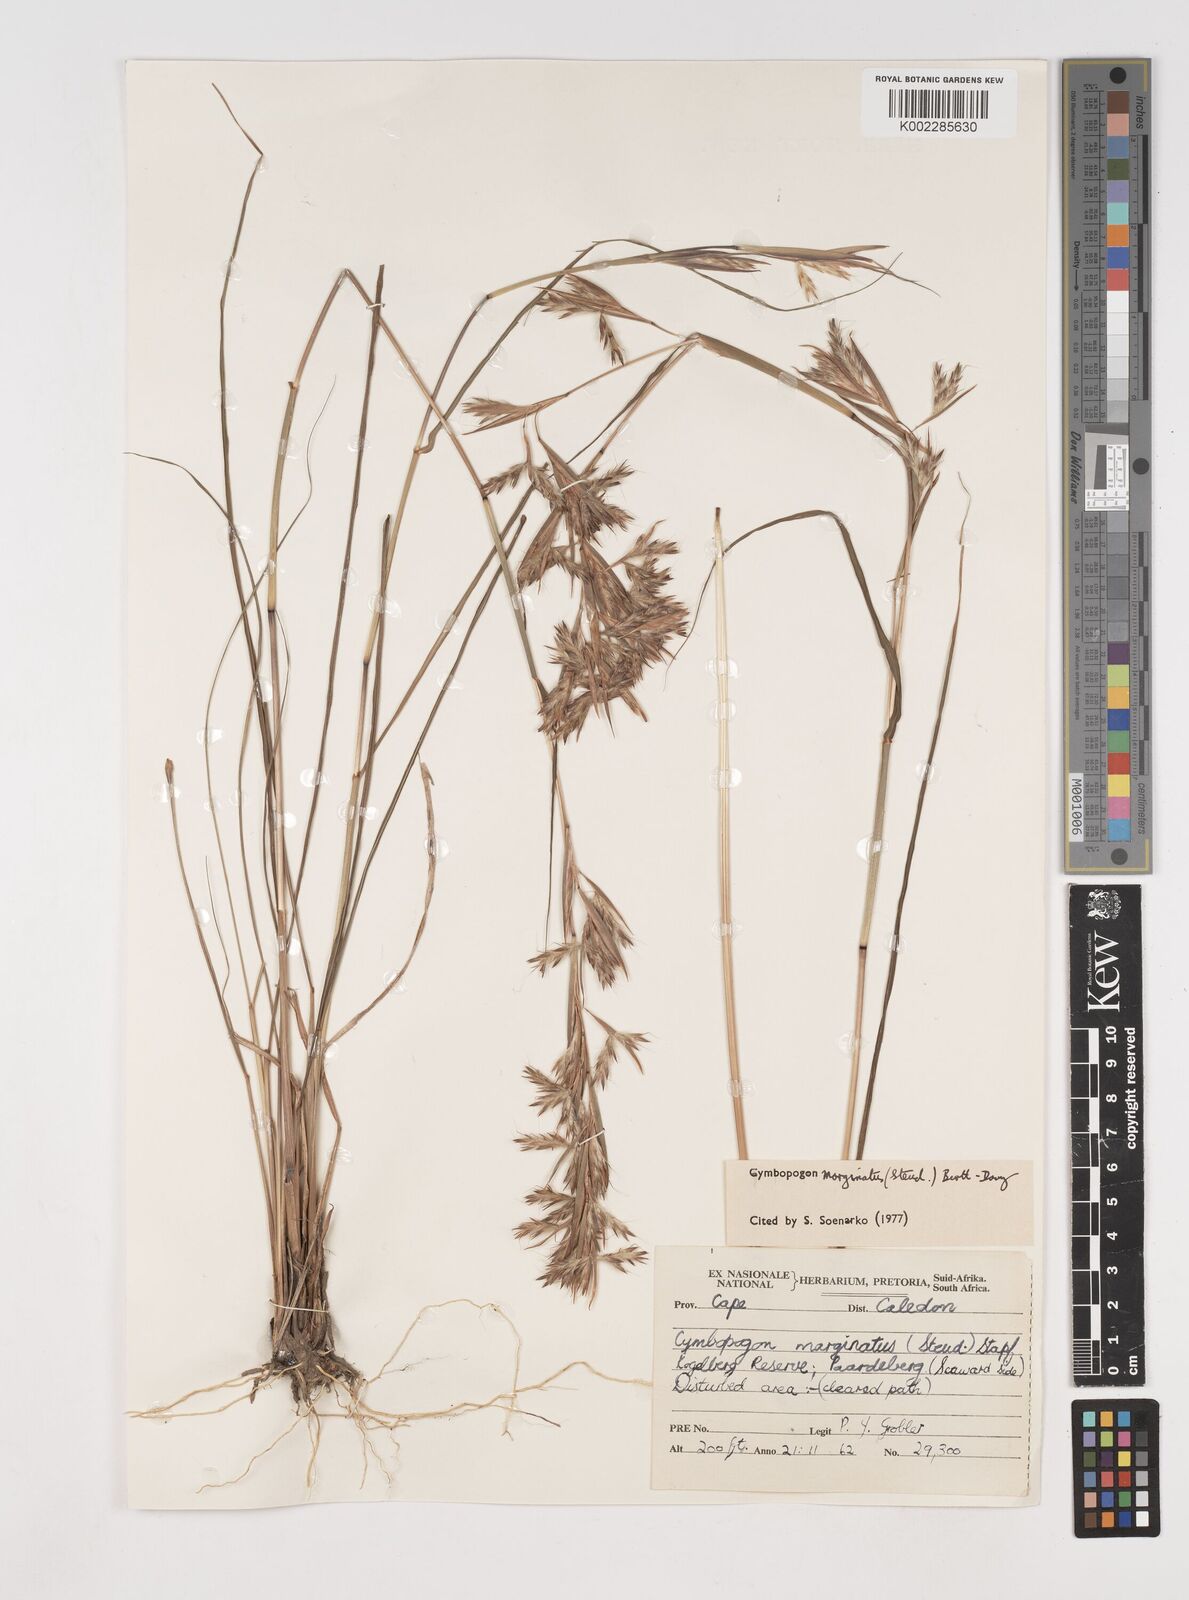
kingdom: Plantae
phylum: Tracheophyta
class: Liliopsida
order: Poales
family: Poaceae
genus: Cymbopogon
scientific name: Cymbopogon marginatus
